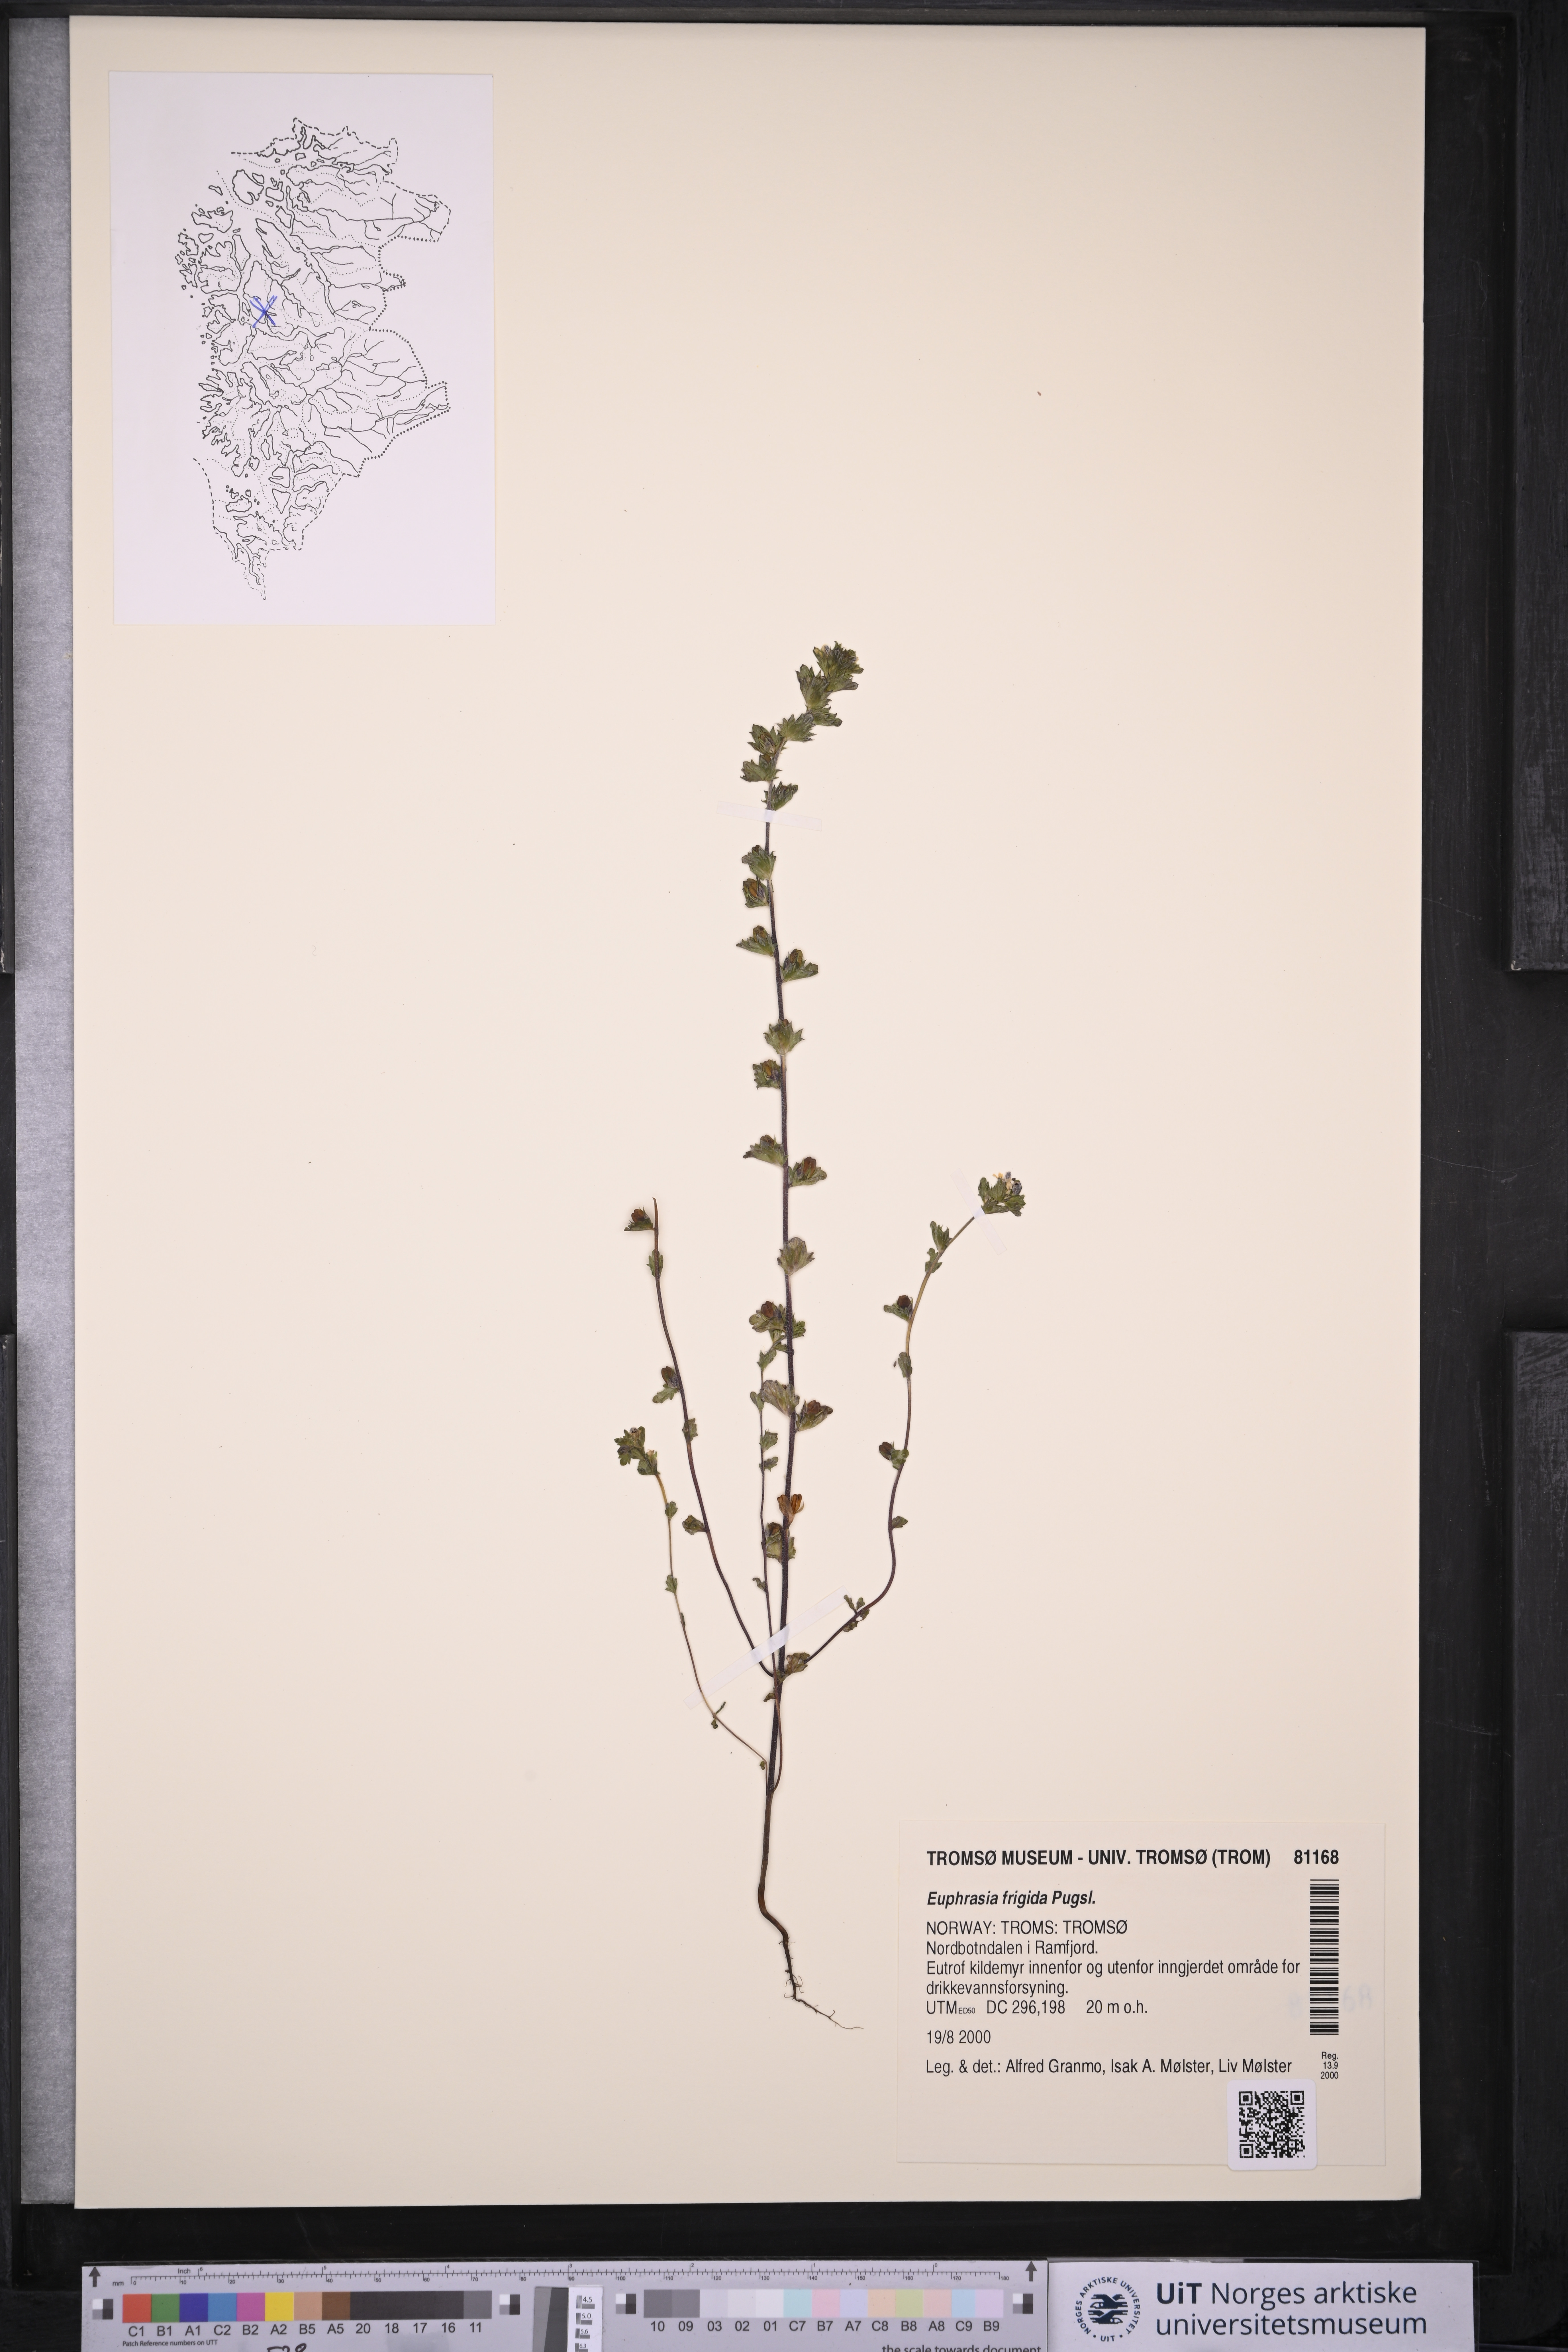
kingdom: Plantae
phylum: Tracheophyta
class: Magnoliopsida
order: Lamiales
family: Orobanchaceae
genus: Euphrasia
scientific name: Euphrasia frigida
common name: An eyebright
